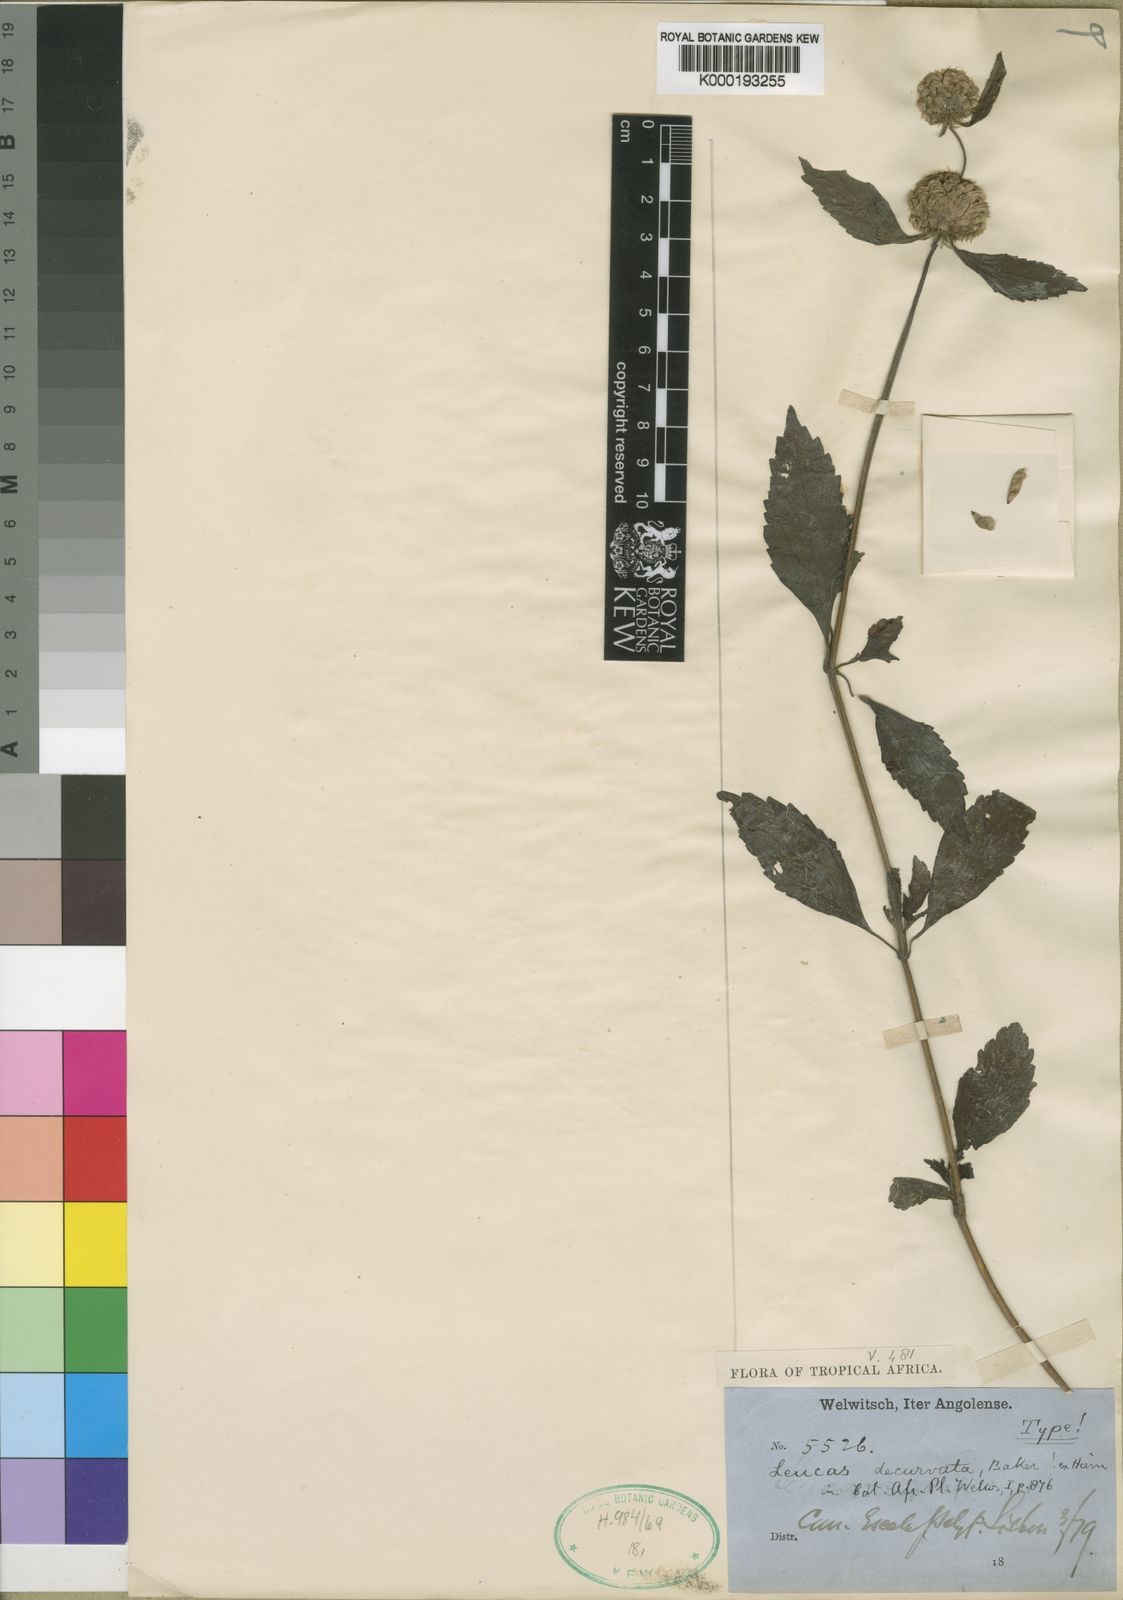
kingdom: Plantae
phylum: Tracheophyta
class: Magnoliopsida
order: Lamiales
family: Lamiaceae
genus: Leucas
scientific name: Leucas deflexa
